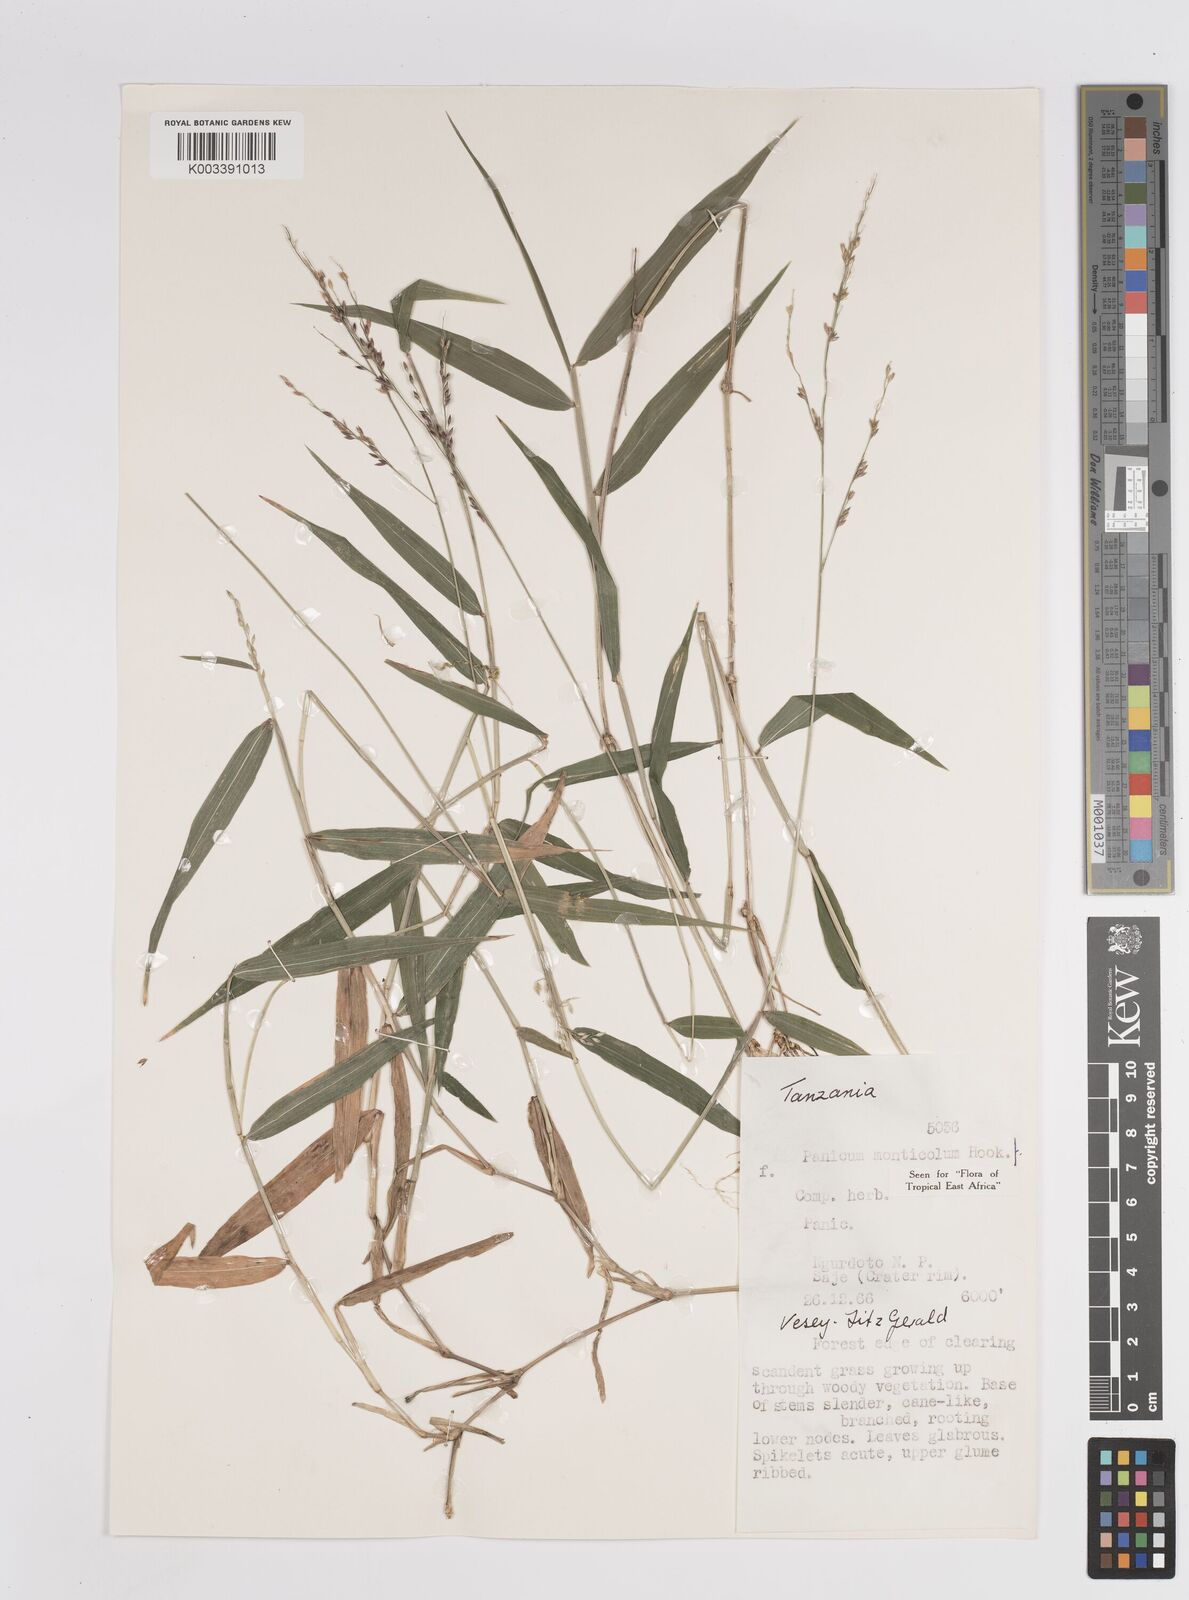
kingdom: Plantae
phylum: Tracheophyta
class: Liliopsida
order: Poales
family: Poaceae
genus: Panicum
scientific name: Panicum monticola
